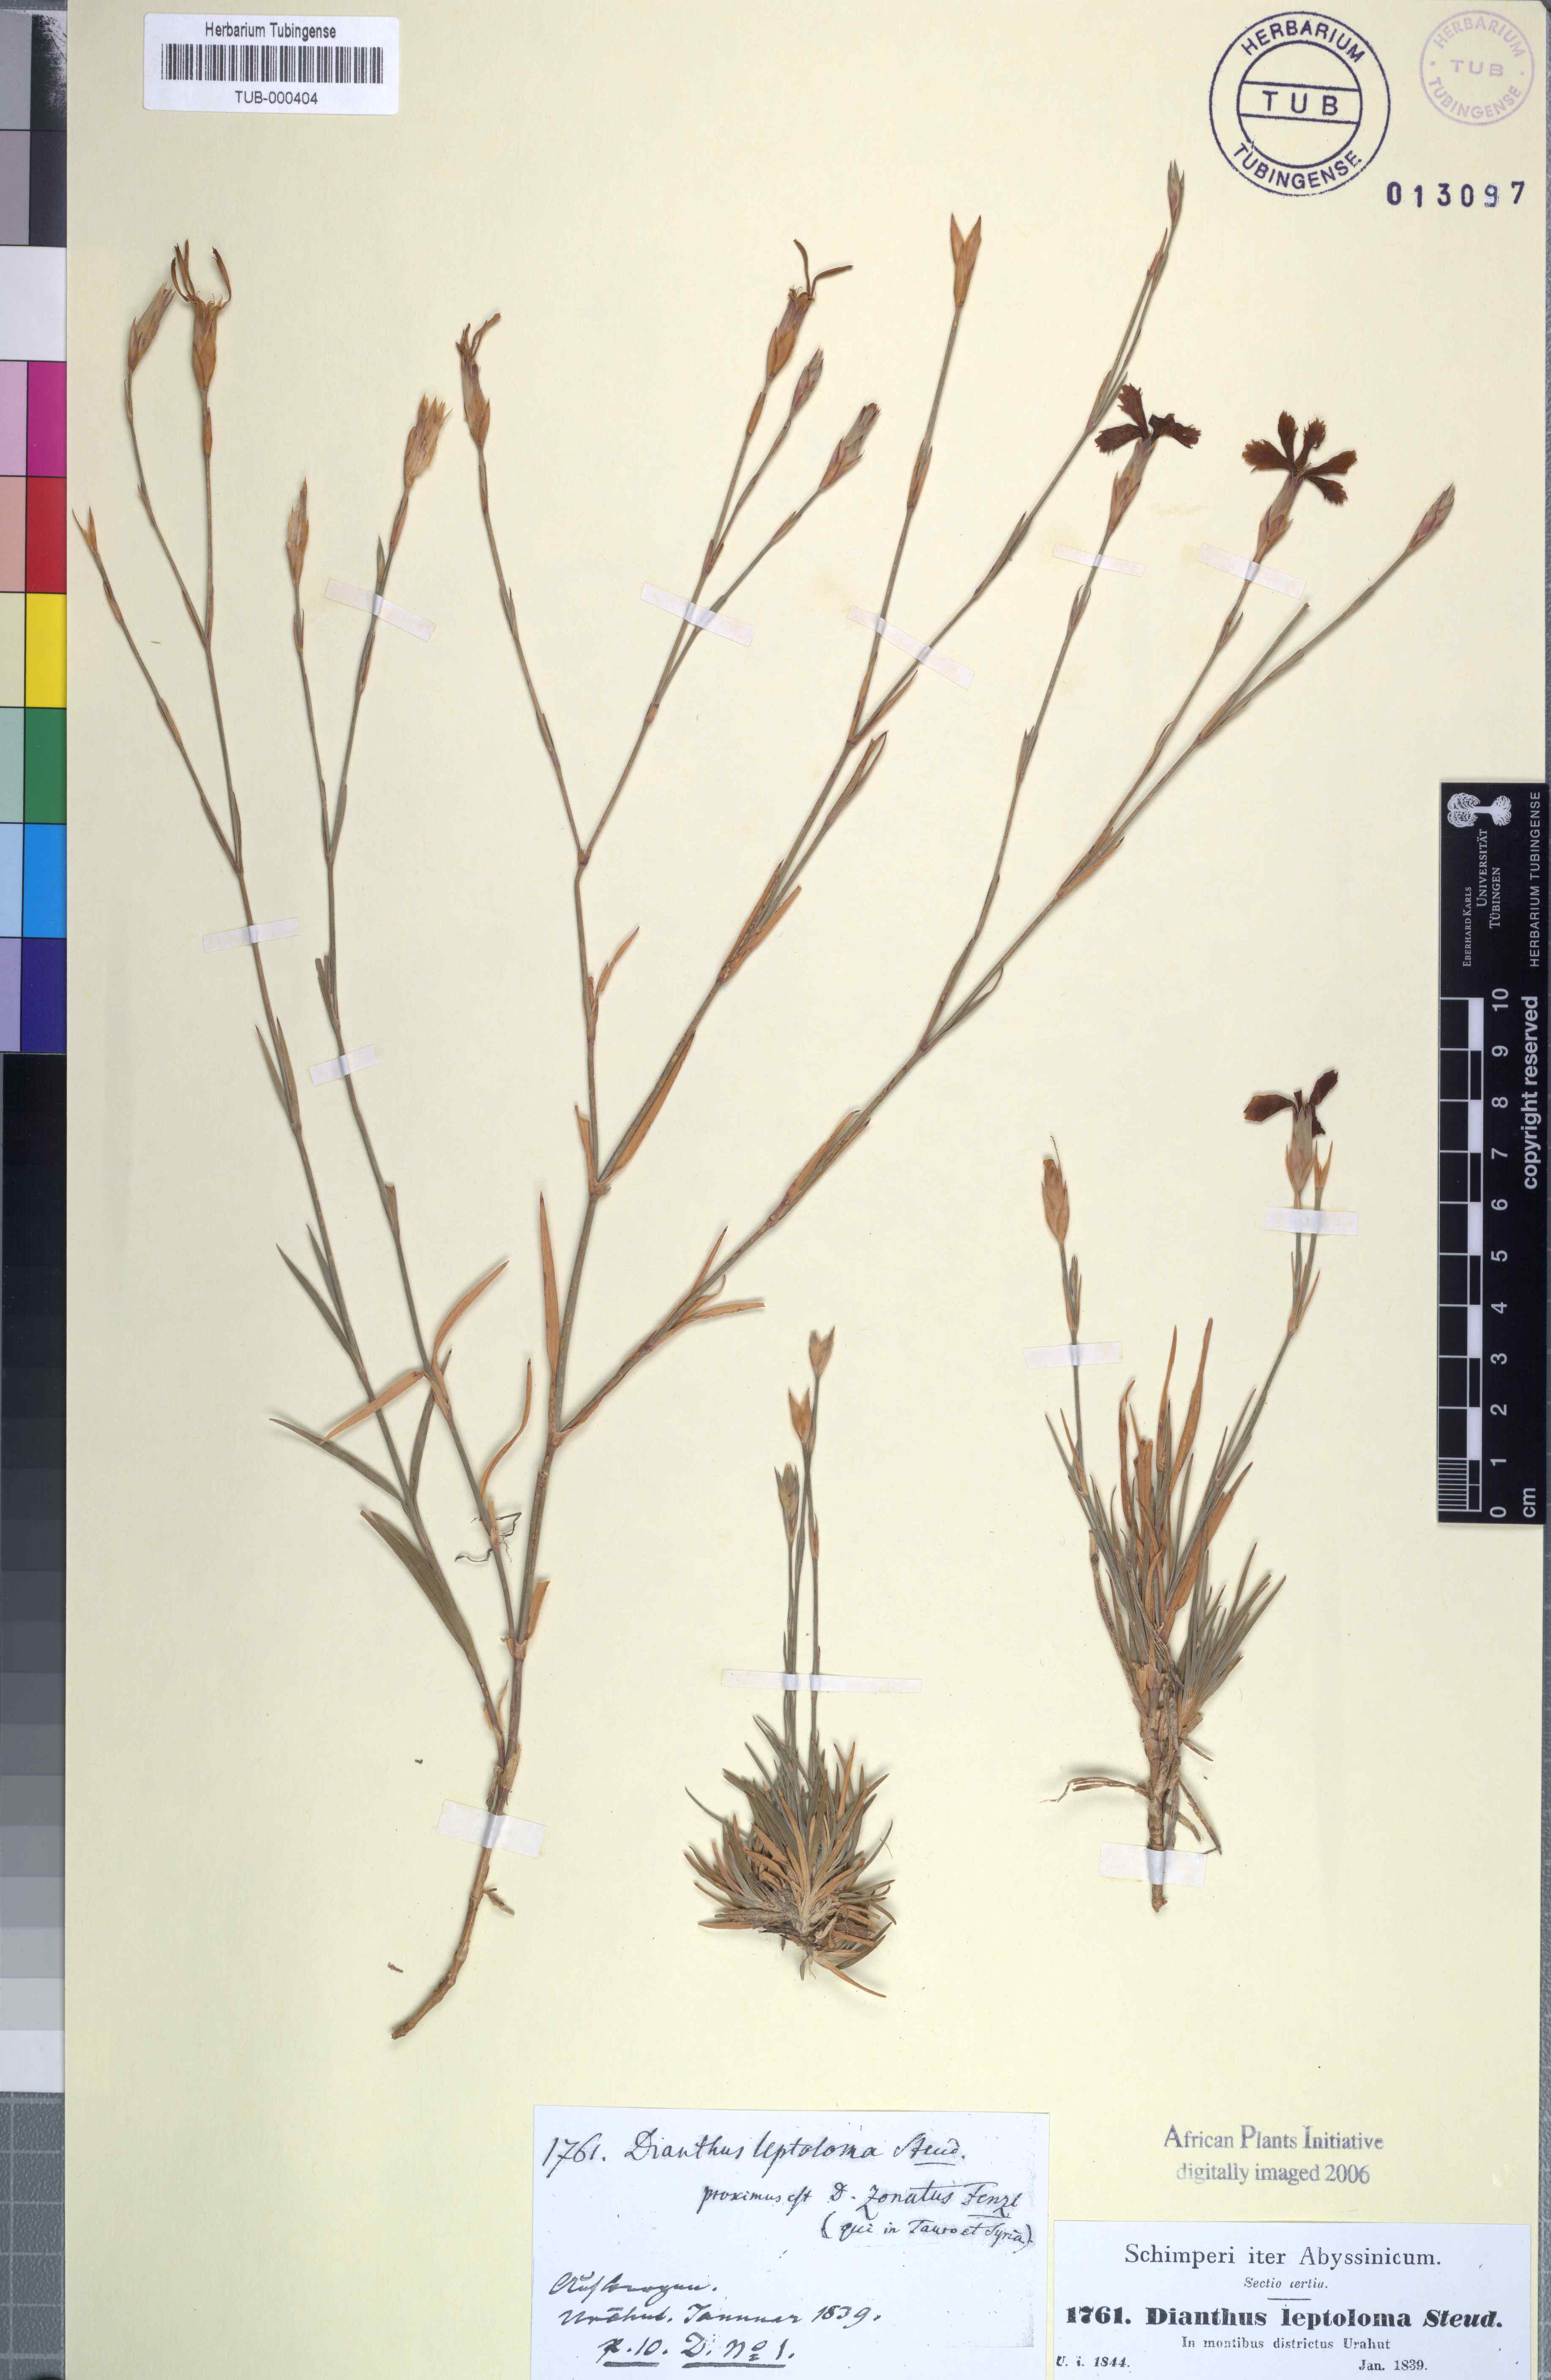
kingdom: Plantae
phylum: Tracheophyta
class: Magnoliopsida
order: Caryophyllales
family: Caryophyllaceae
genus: Dianthus
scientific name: Dianthus leptoloma
